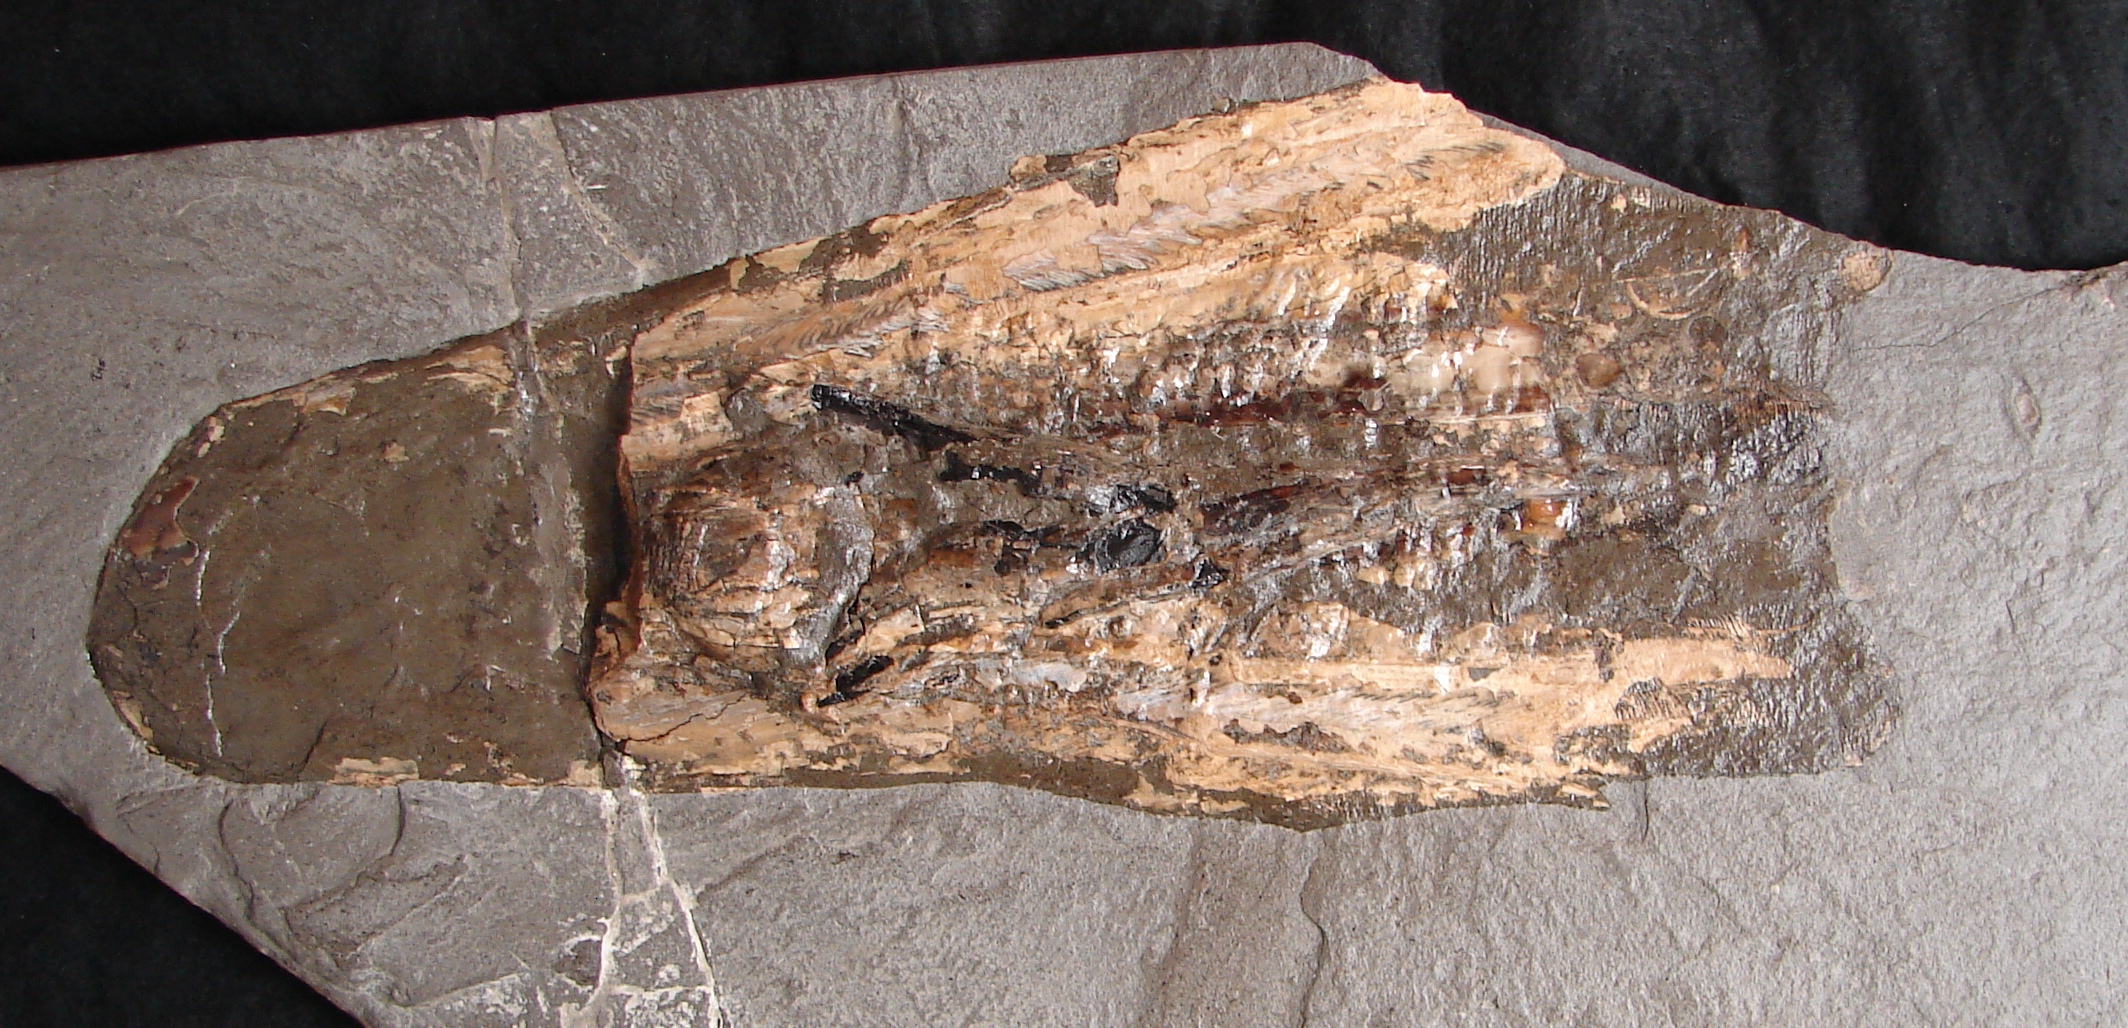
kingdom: Animalia
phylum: Mollusca
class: Cephalopoda
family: Loligosepiidae
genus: Loligosepia
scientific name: Loligosepia
